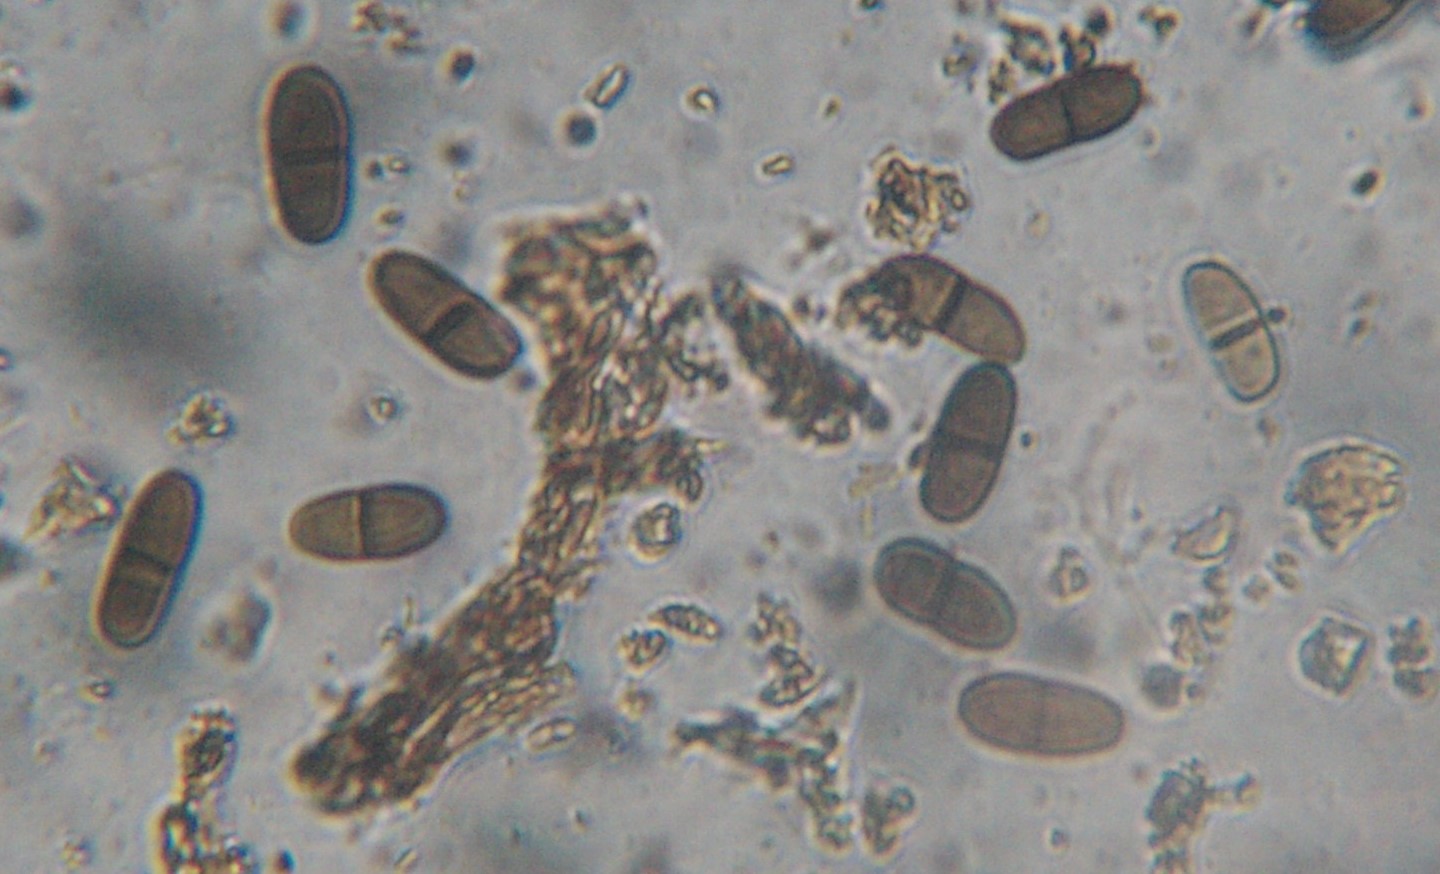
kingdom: Fungi
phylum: Ascomycota
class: Dothideomycetes
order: Botryosphaeriales
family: Botryosphaeriaceae
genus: Diplodia
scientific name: Diplodia rubi
